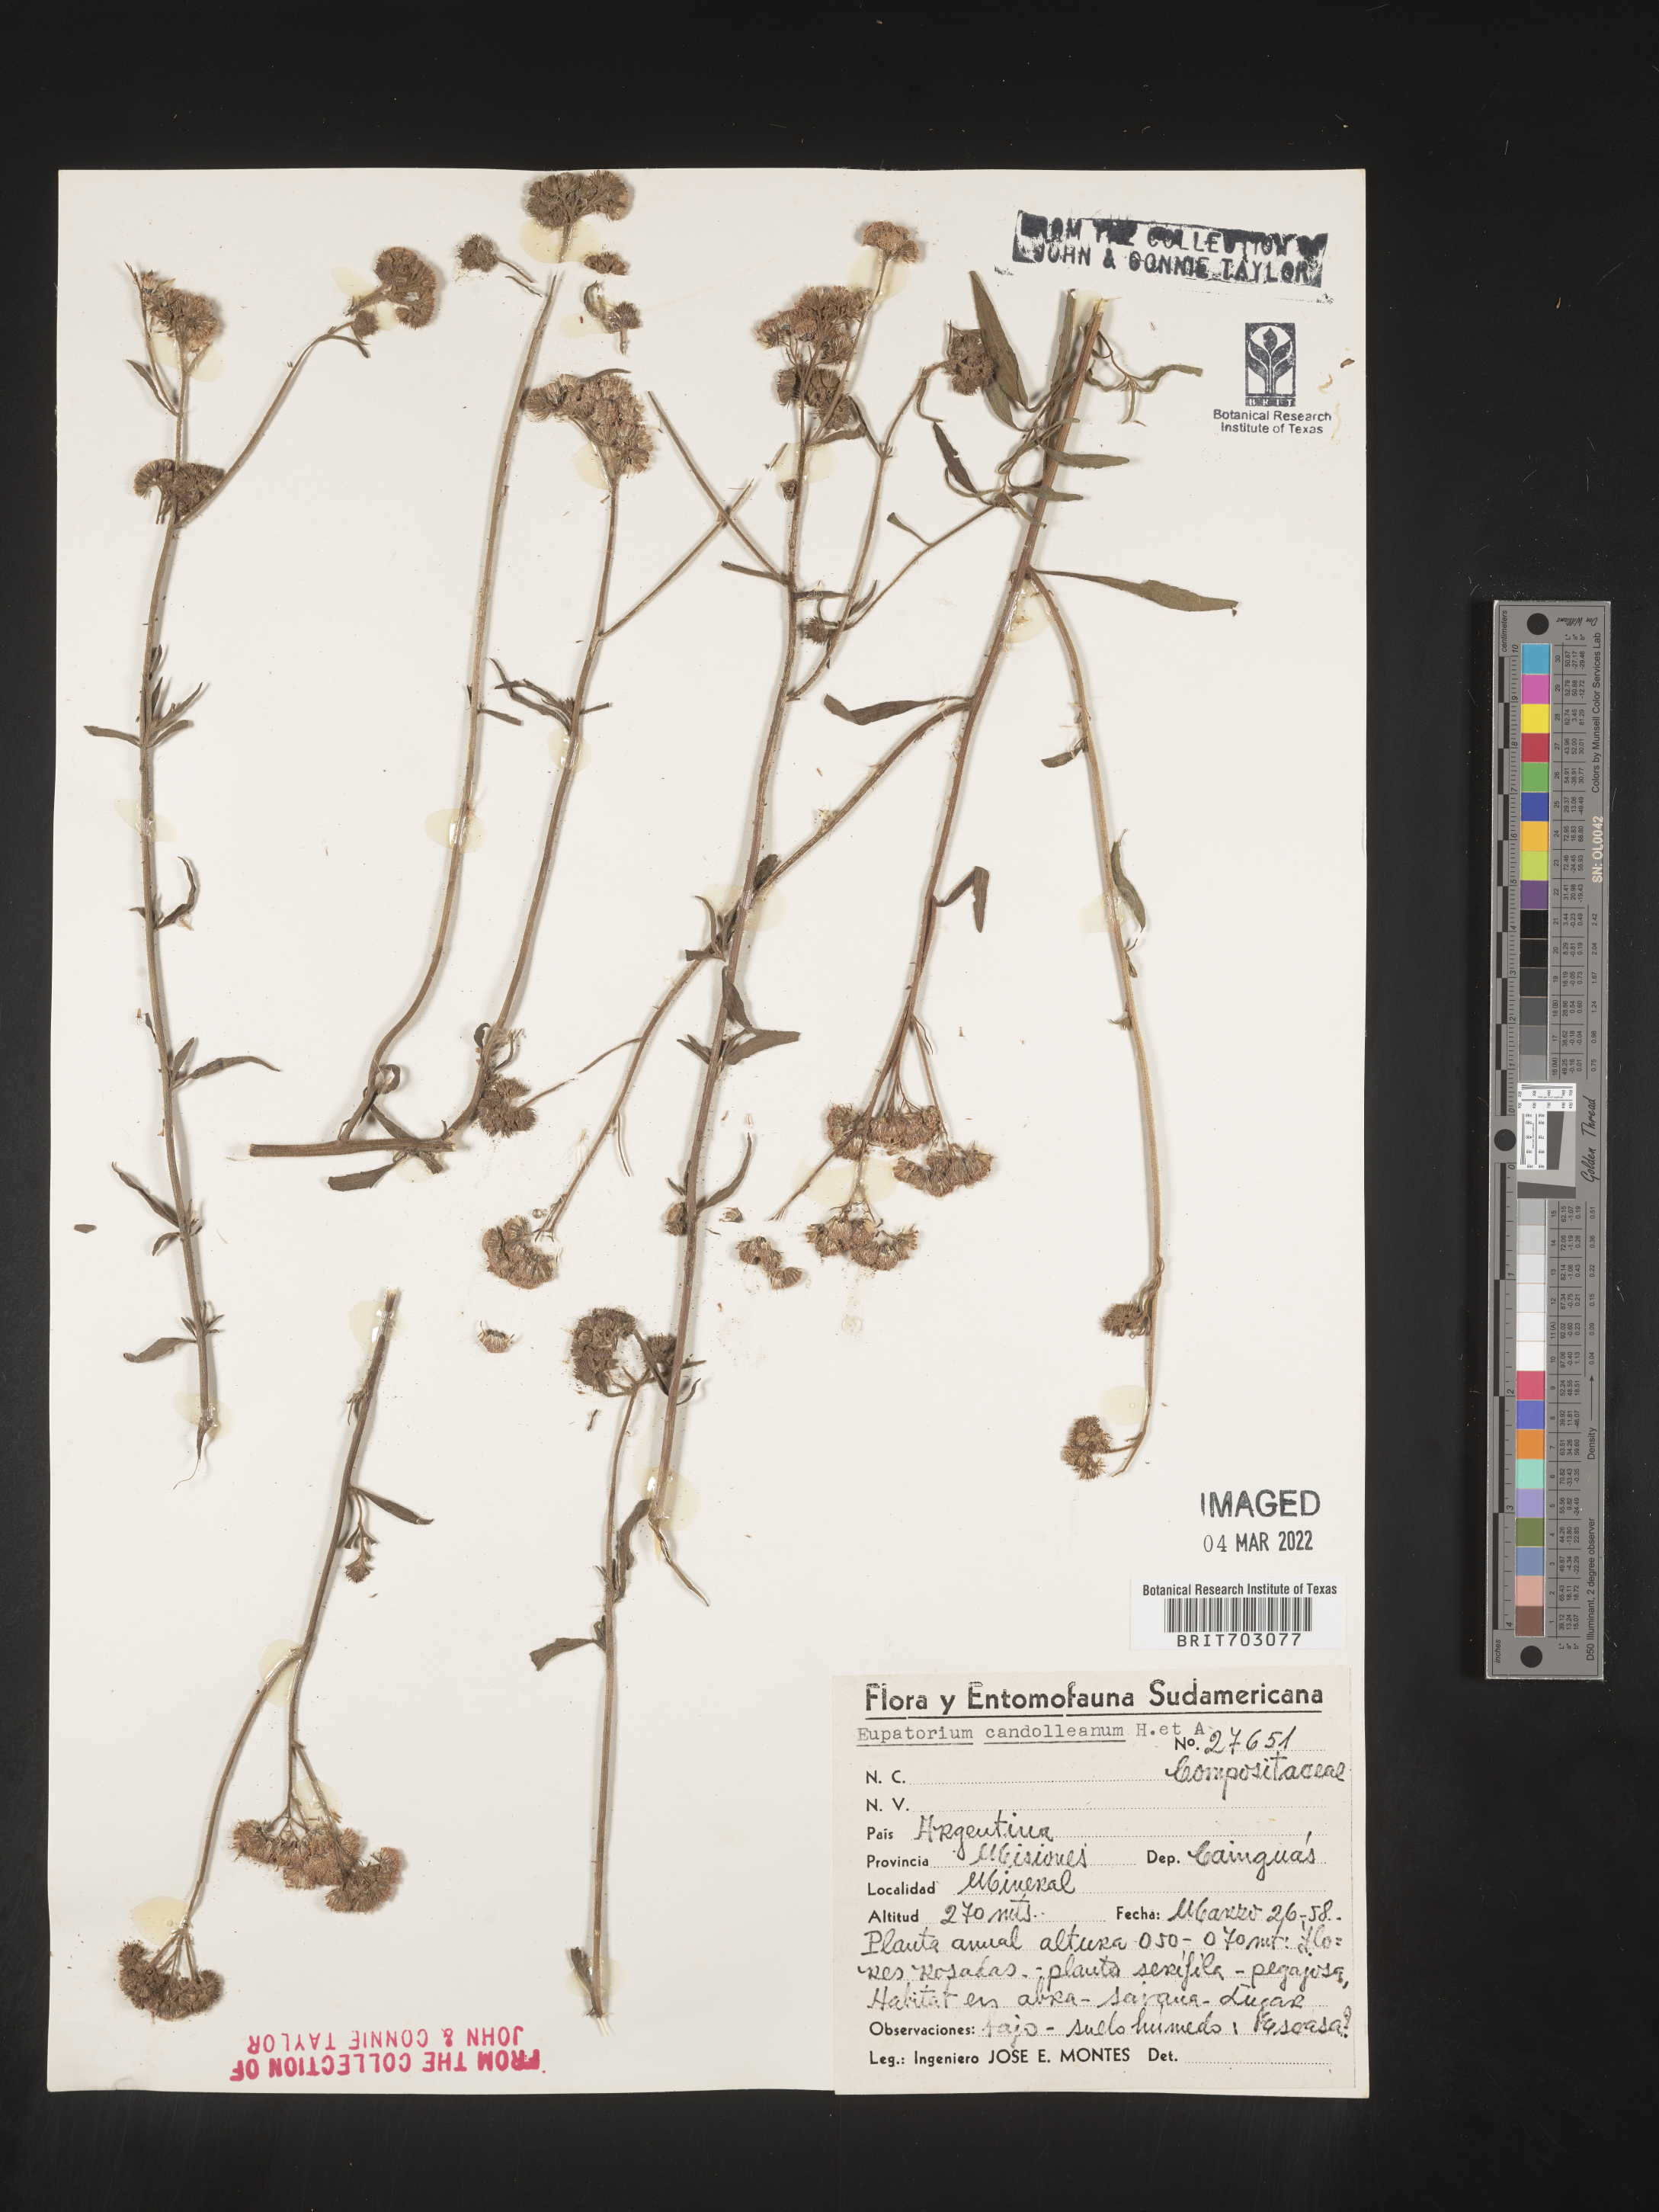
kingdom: Plantae
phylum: Tracheophyta
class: Magnoliopsida
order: Asterales
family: Asteraceae
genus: Eupatorium
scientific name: Eupatorium
